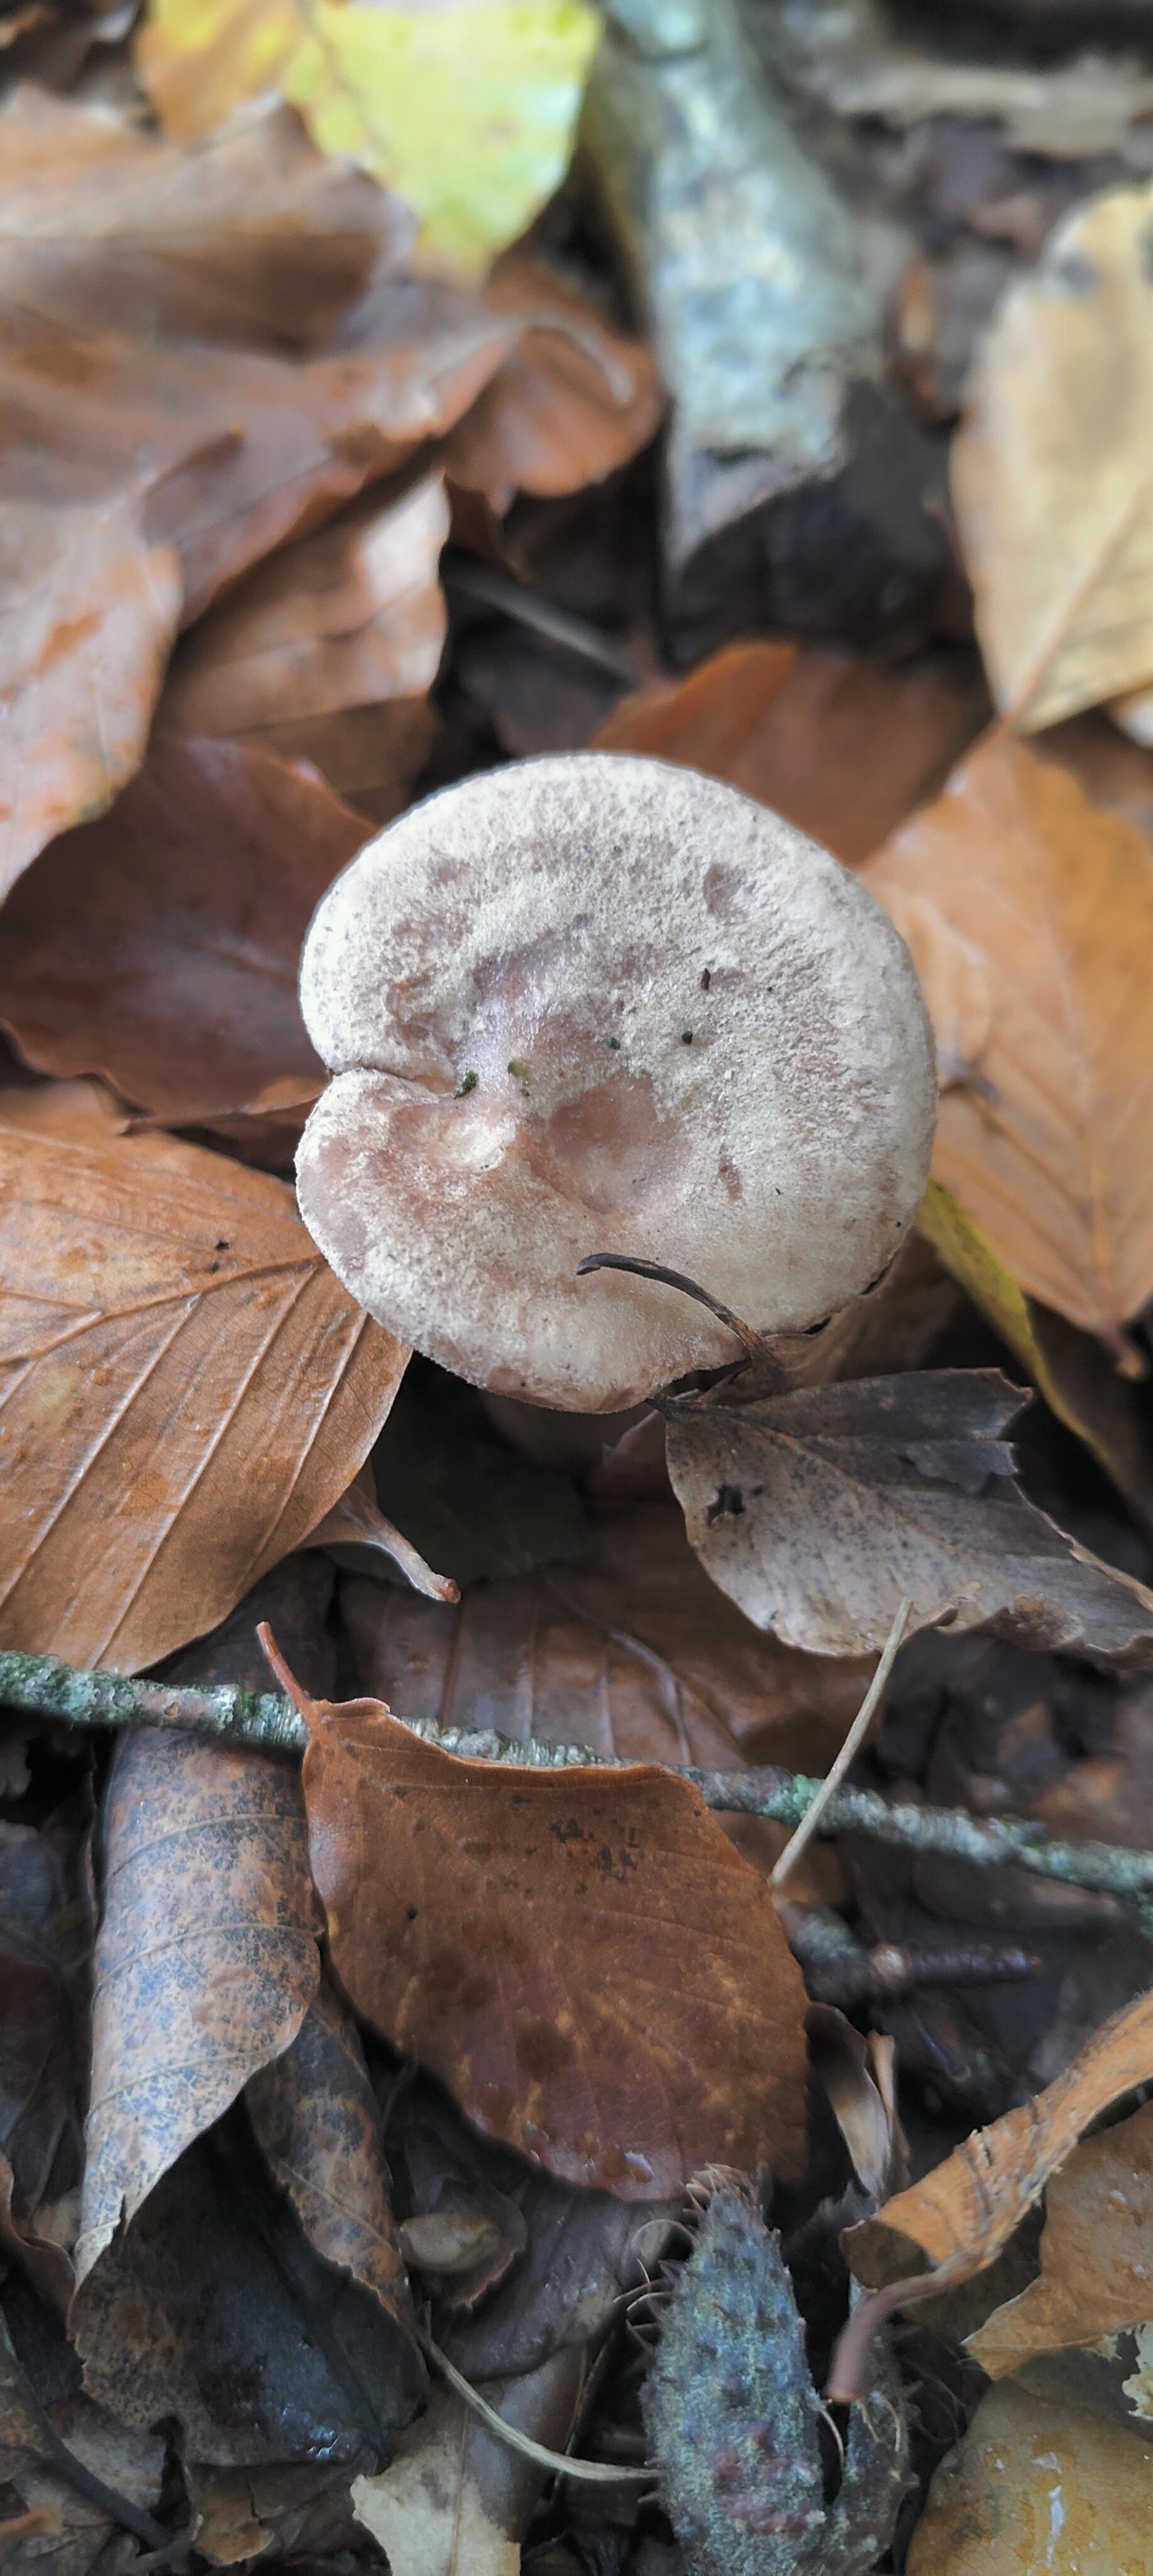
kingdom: Fungi
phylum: Basidiomycota
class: Agaricomycetes
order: Russulales
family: Russulaceae
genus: Lactarius
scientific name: Lactarius blennius
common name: dråbeplettet mælkehat
